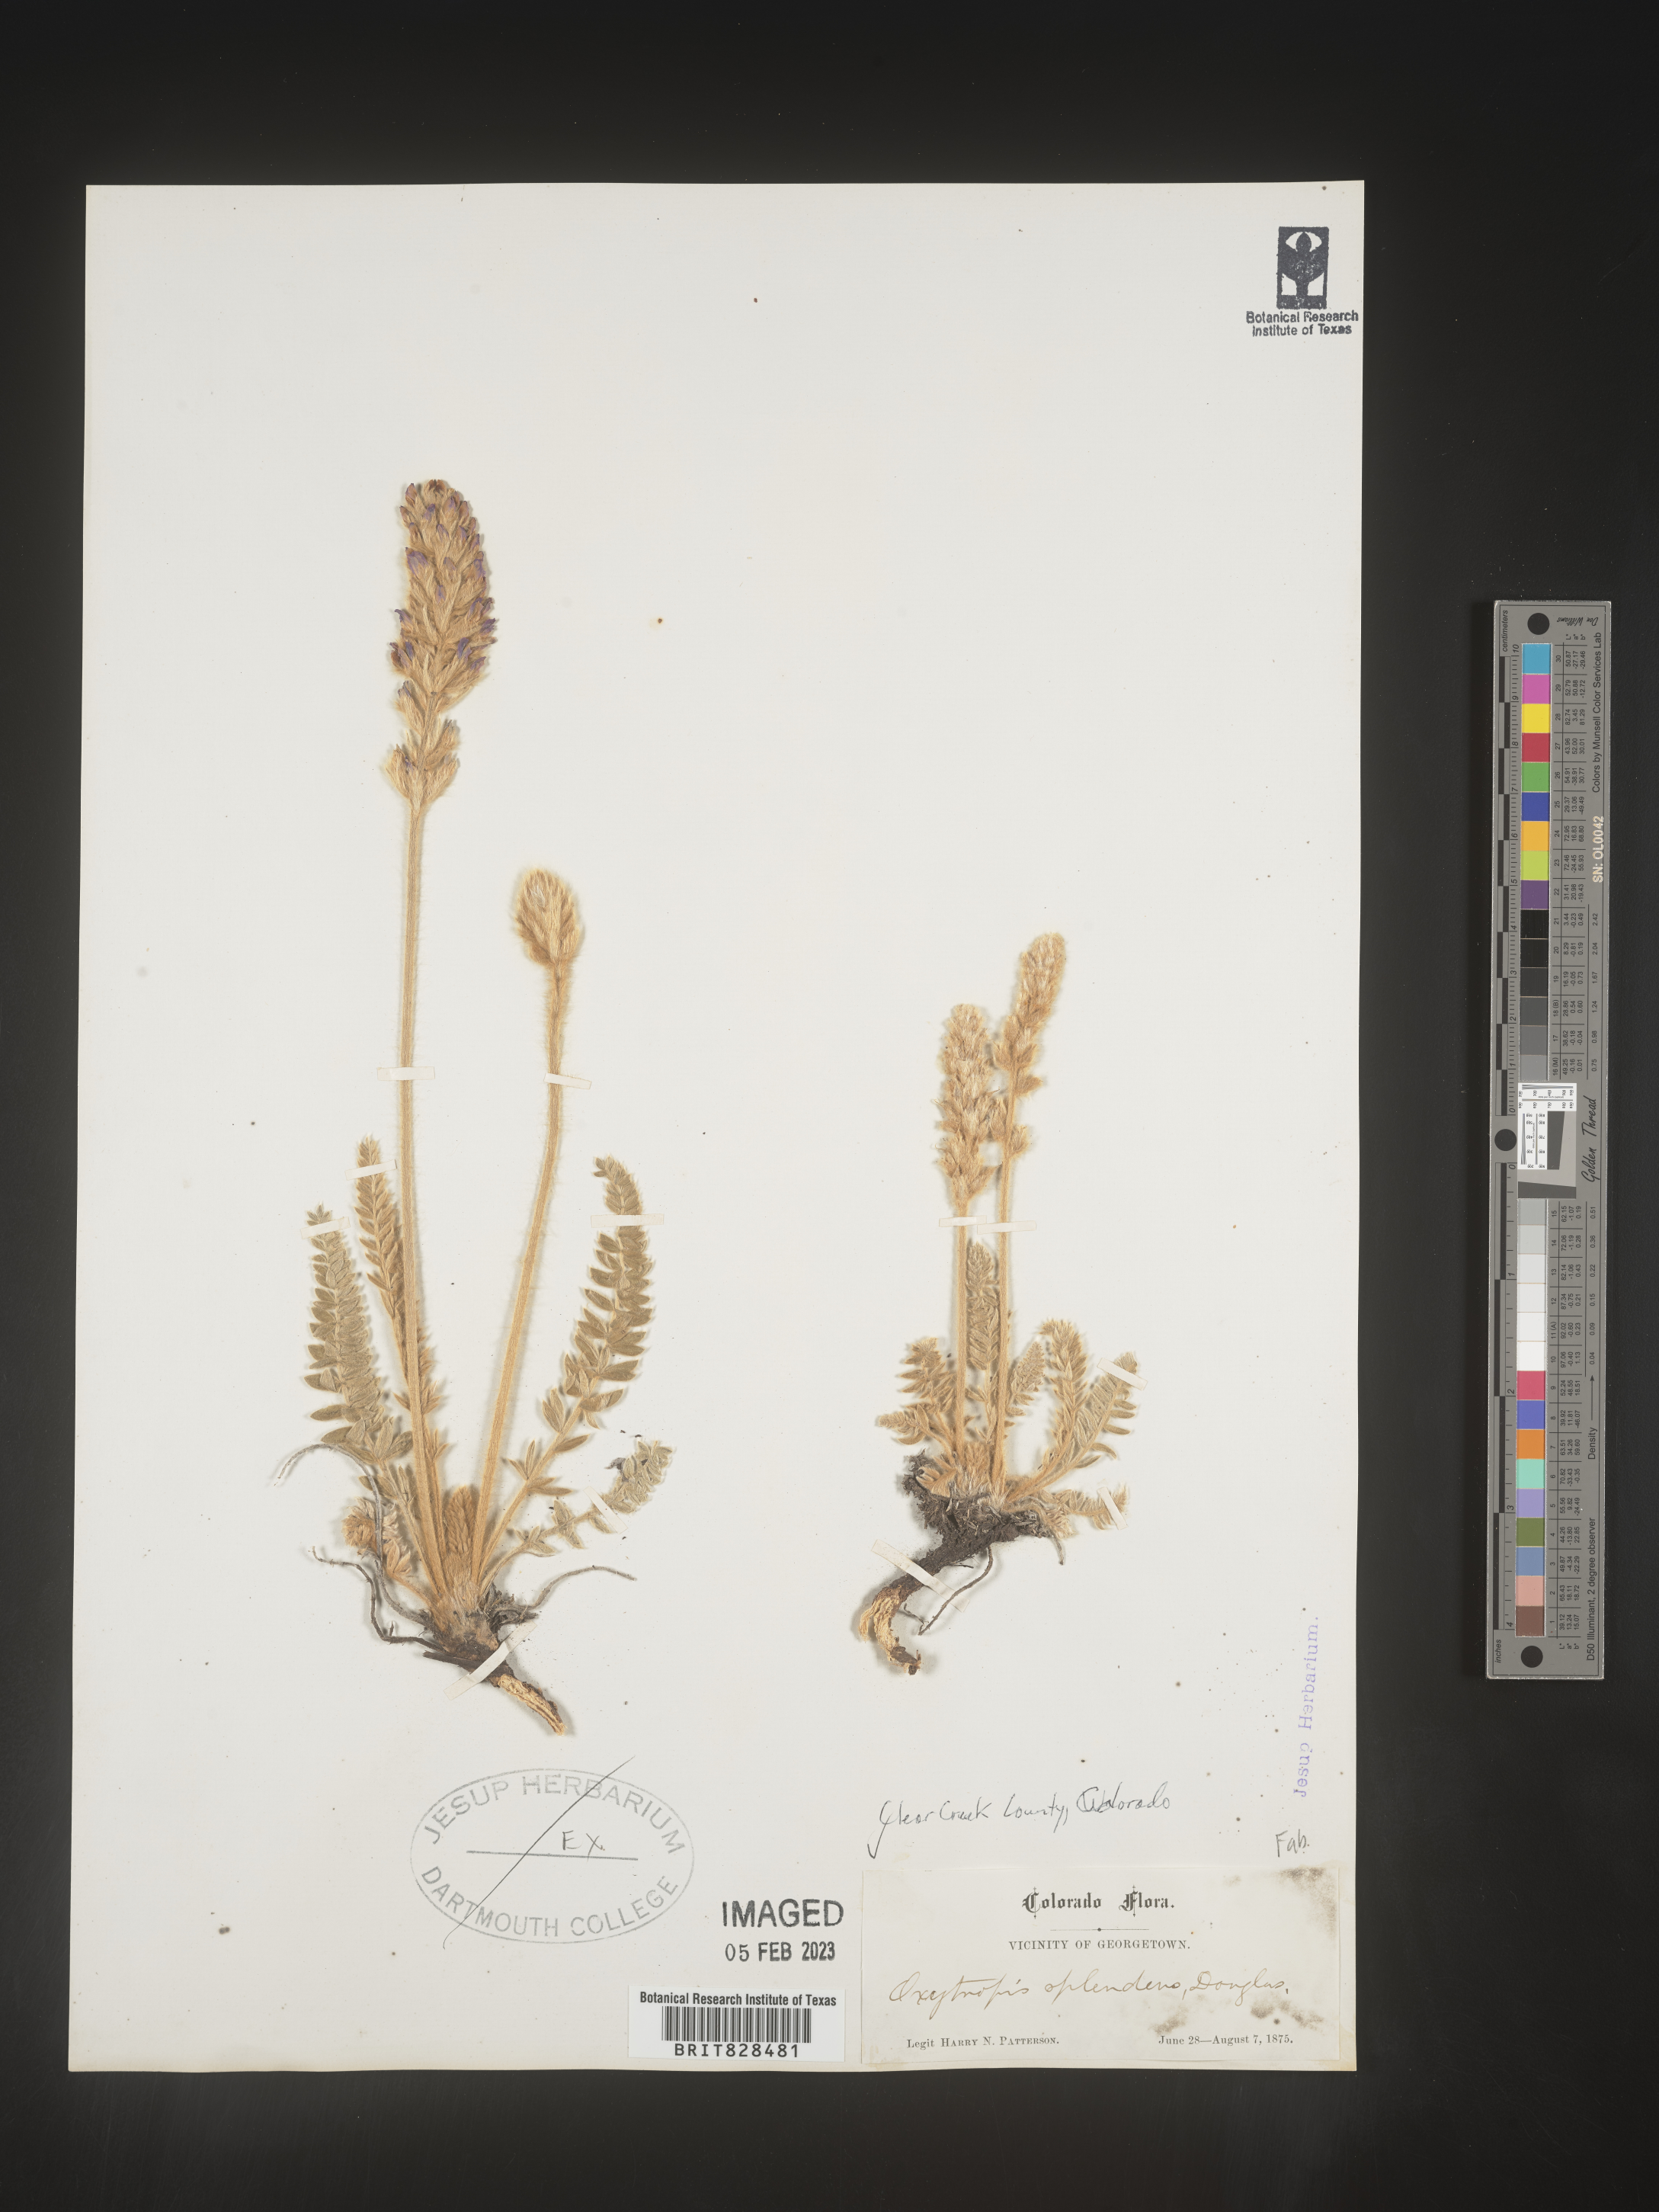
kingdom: Plantae
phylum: Tracheophyta
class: Magnoliopsida
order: Fabales
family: Fabaceae
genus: Oxytropis
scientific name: Oxytropis splendens
